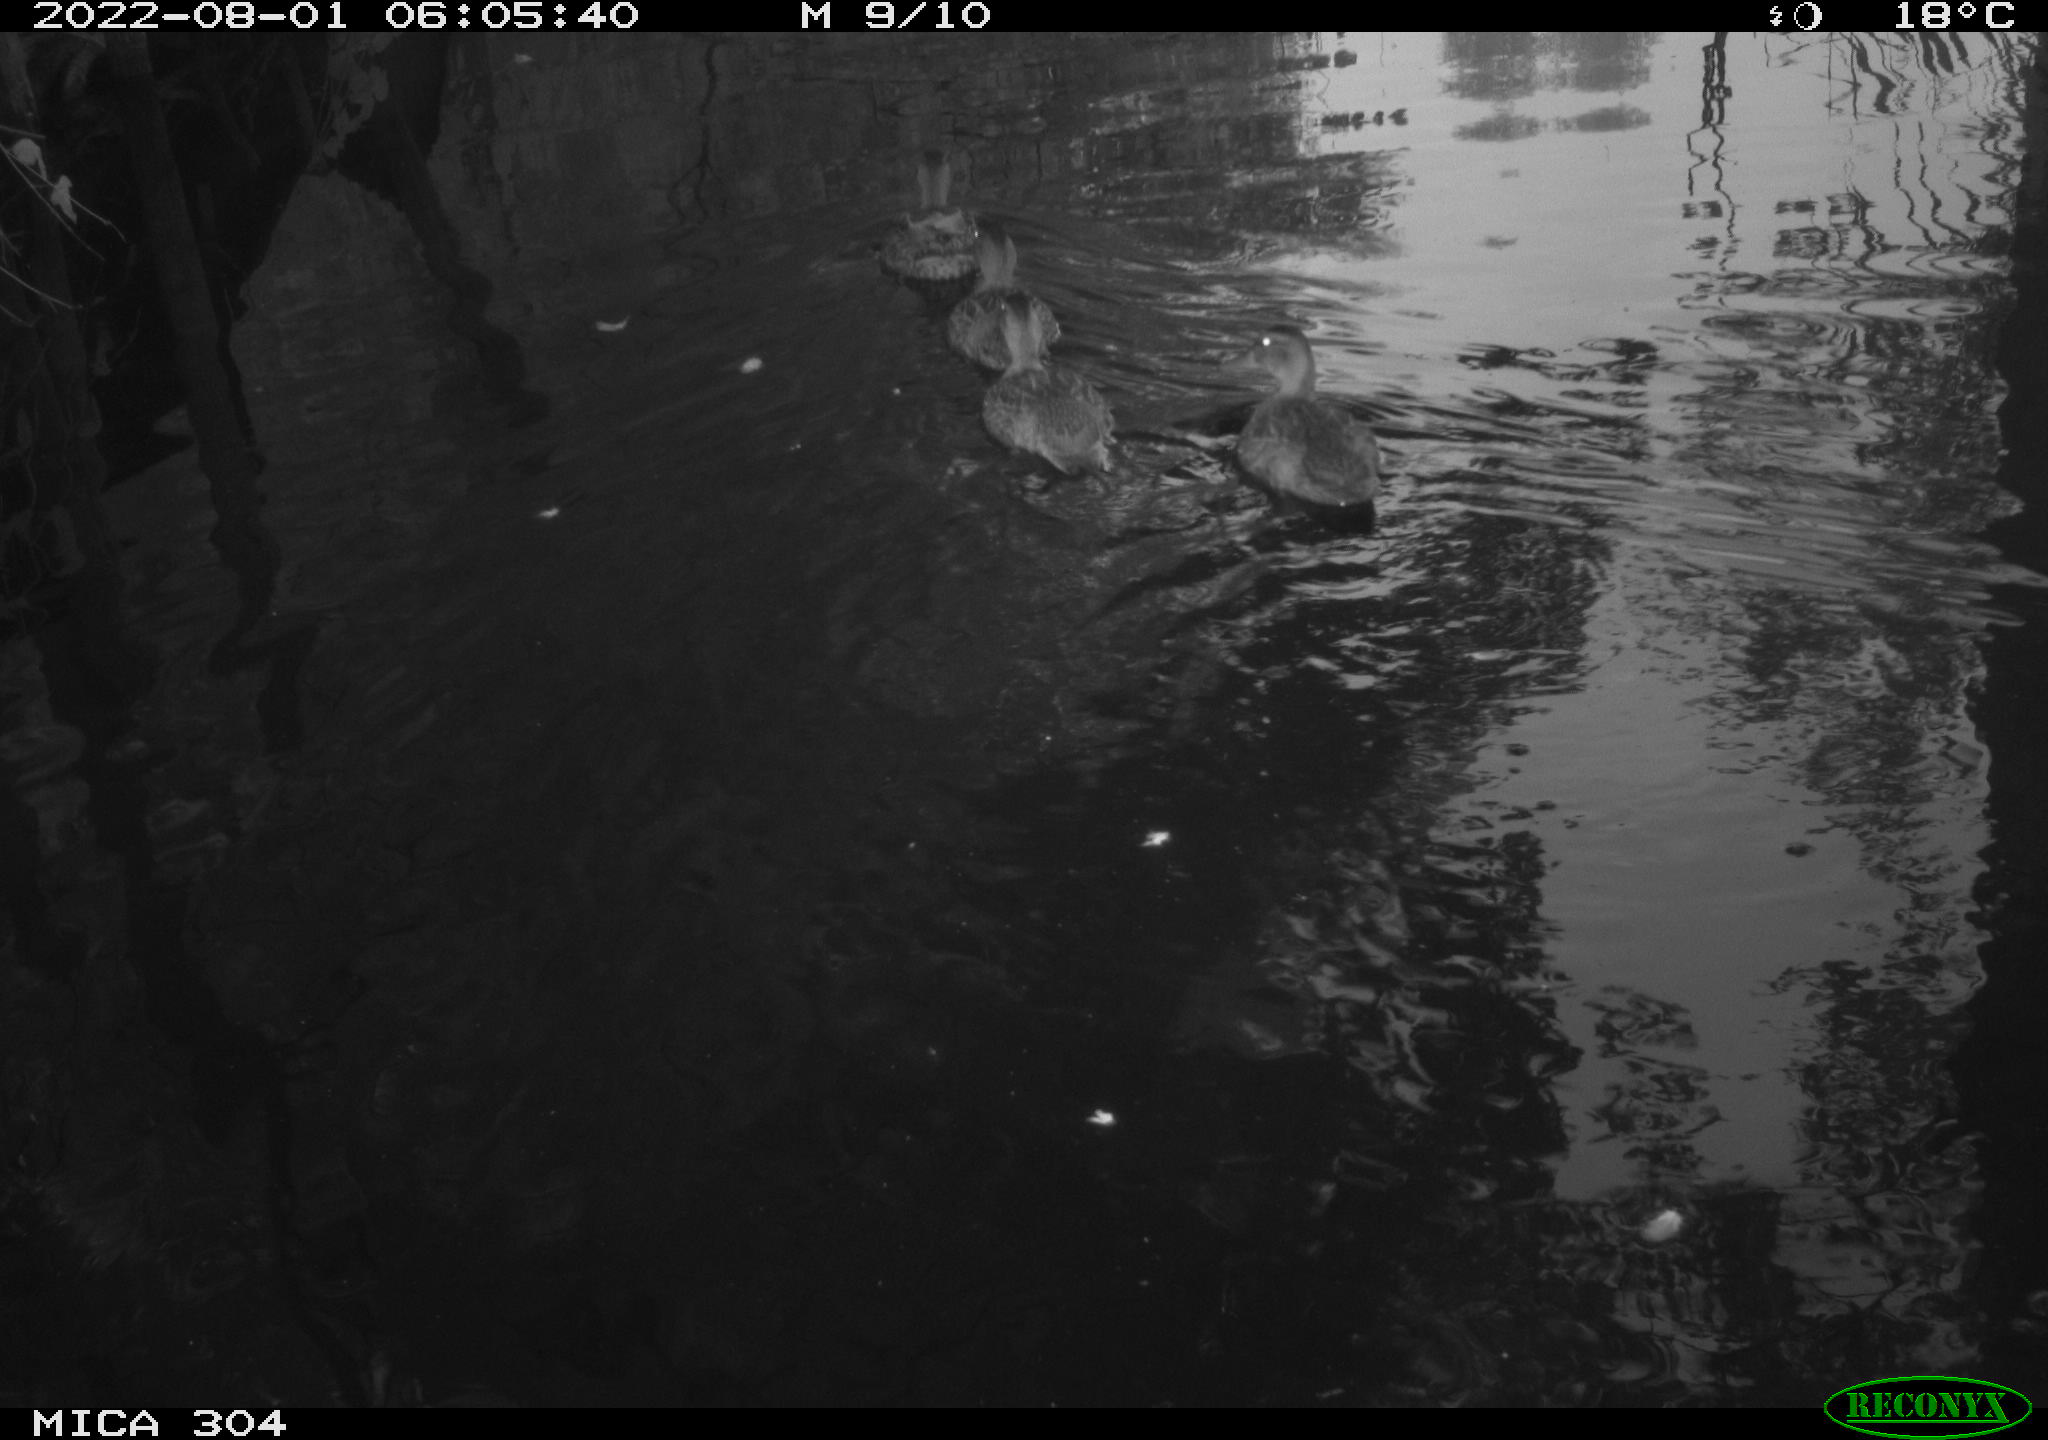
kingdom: Animalia
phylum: Chordata
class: Aves
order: Anseriformes
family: Anatidae
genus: Mareca
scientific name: Mareca strepera
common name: Gadwall
